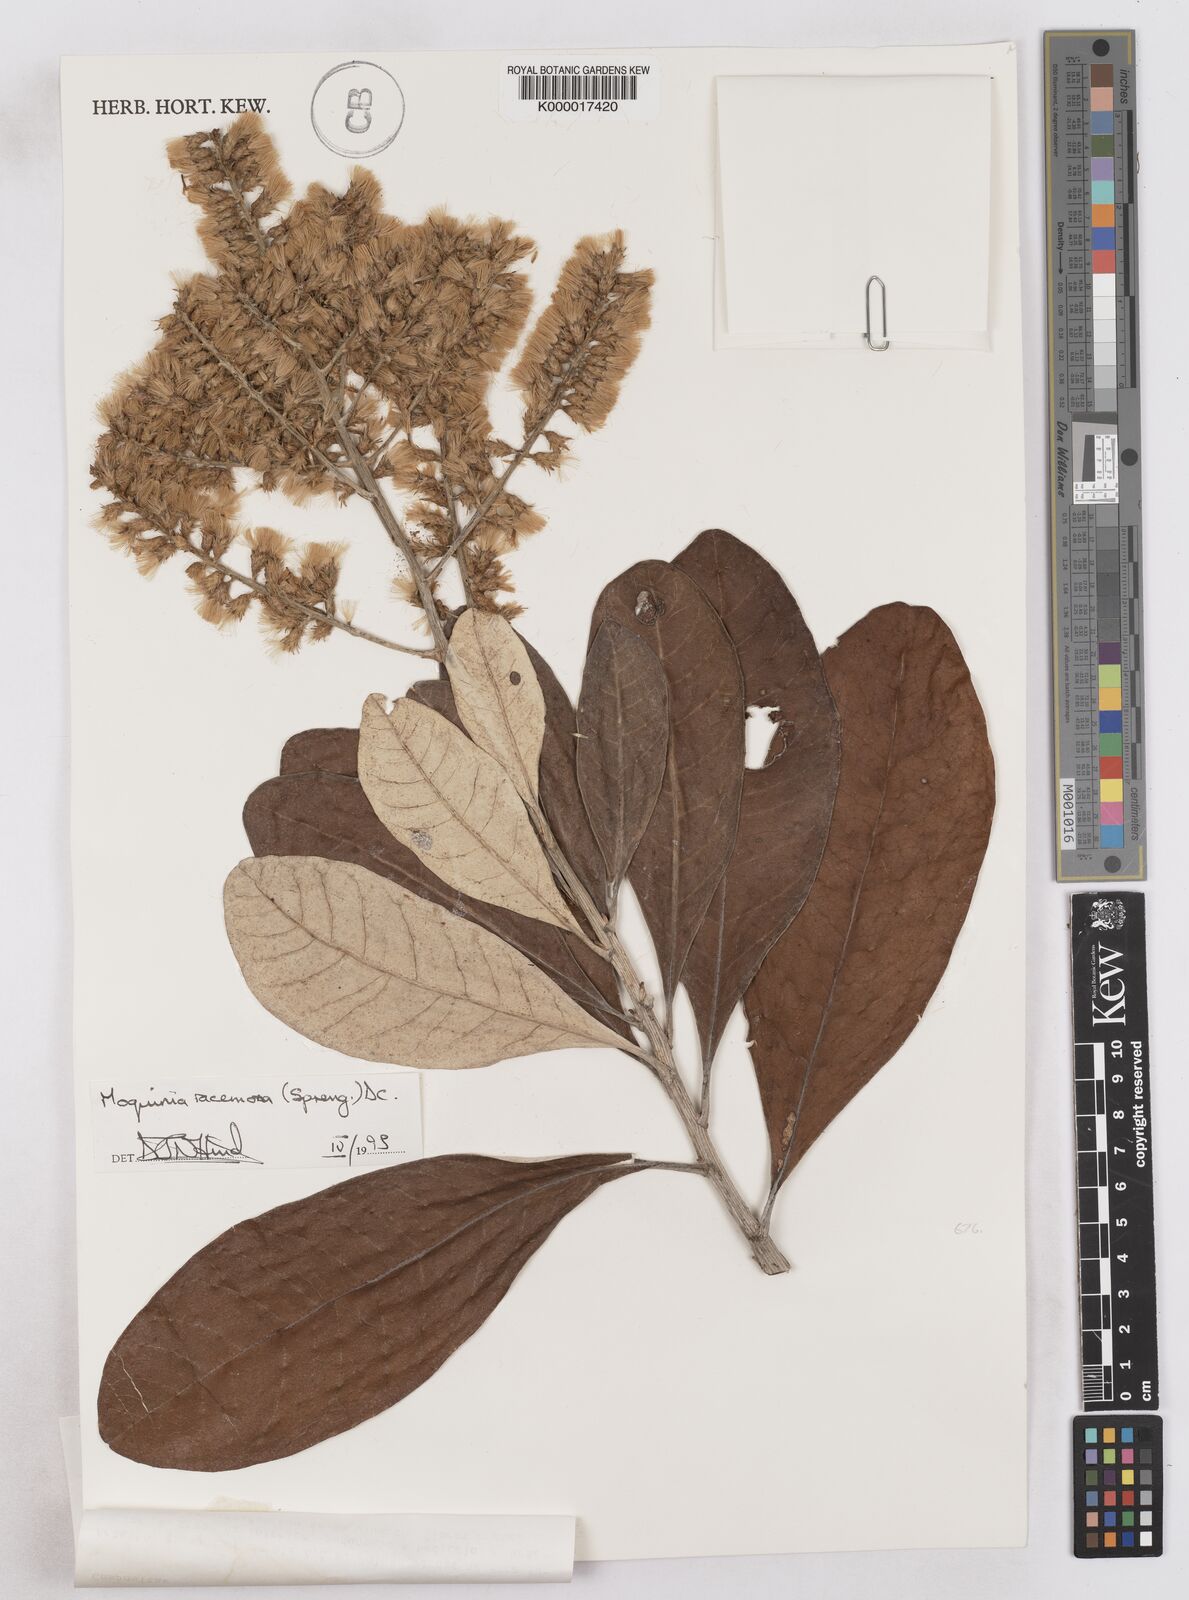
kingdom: Plantae
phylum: Tracheophyta
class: Magnoliopsida
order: Asterales
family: Asteraceae
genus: Moquinia
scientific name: Moquinia racemosa
